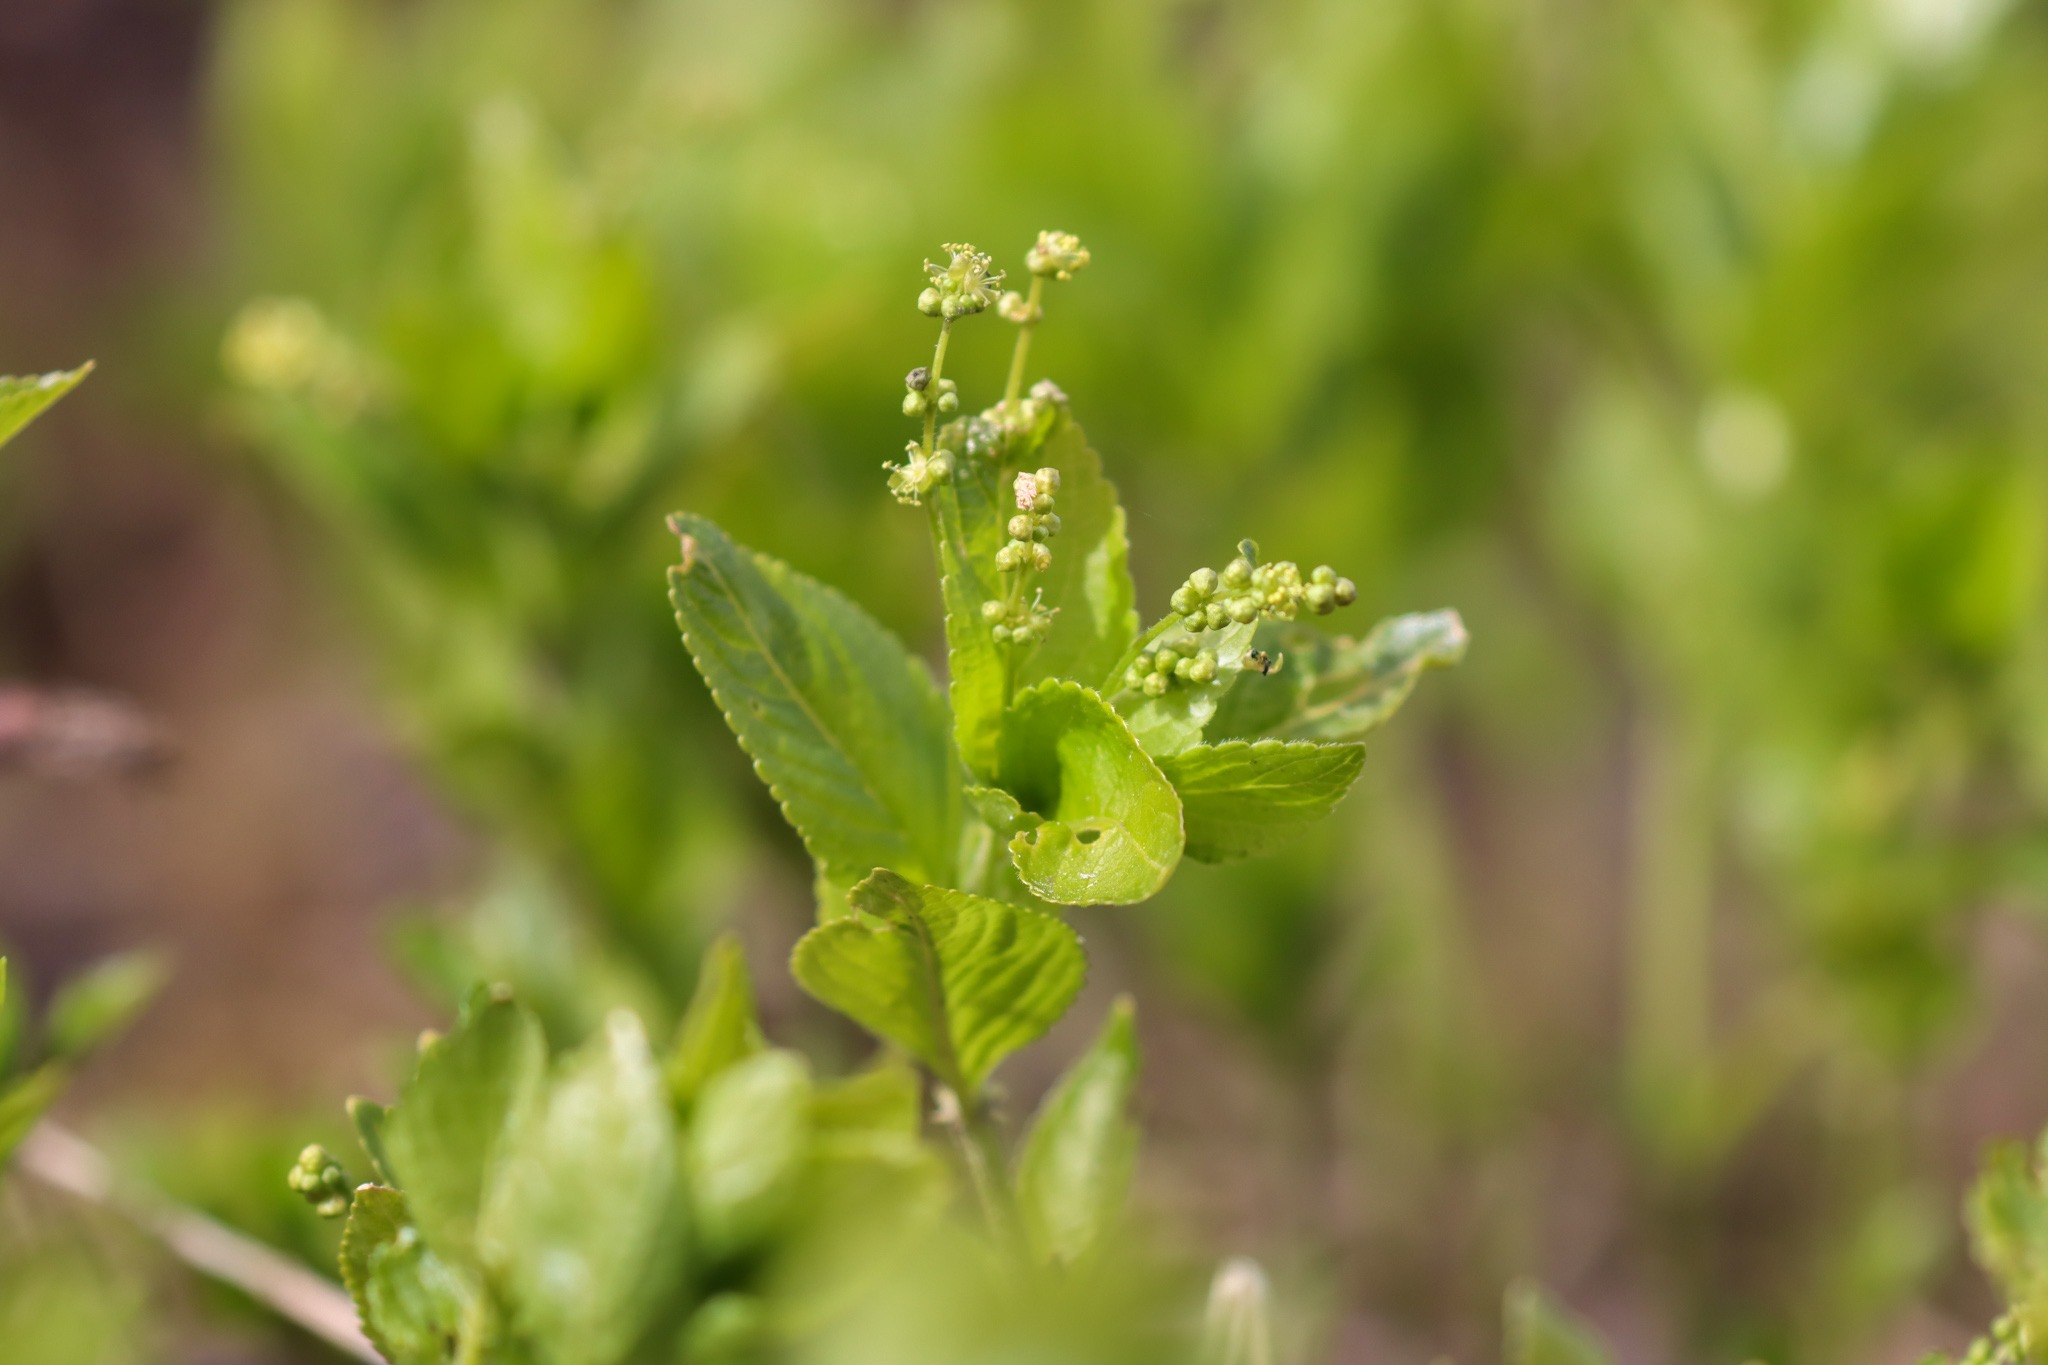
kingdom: Plantae
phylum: Tracheophyta
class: Magnoliopsida
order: Malpighiales
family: Euphorbiaceae
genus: Mercurialis
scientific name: Mercurialis perennis
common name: Almindelig bingelurt
